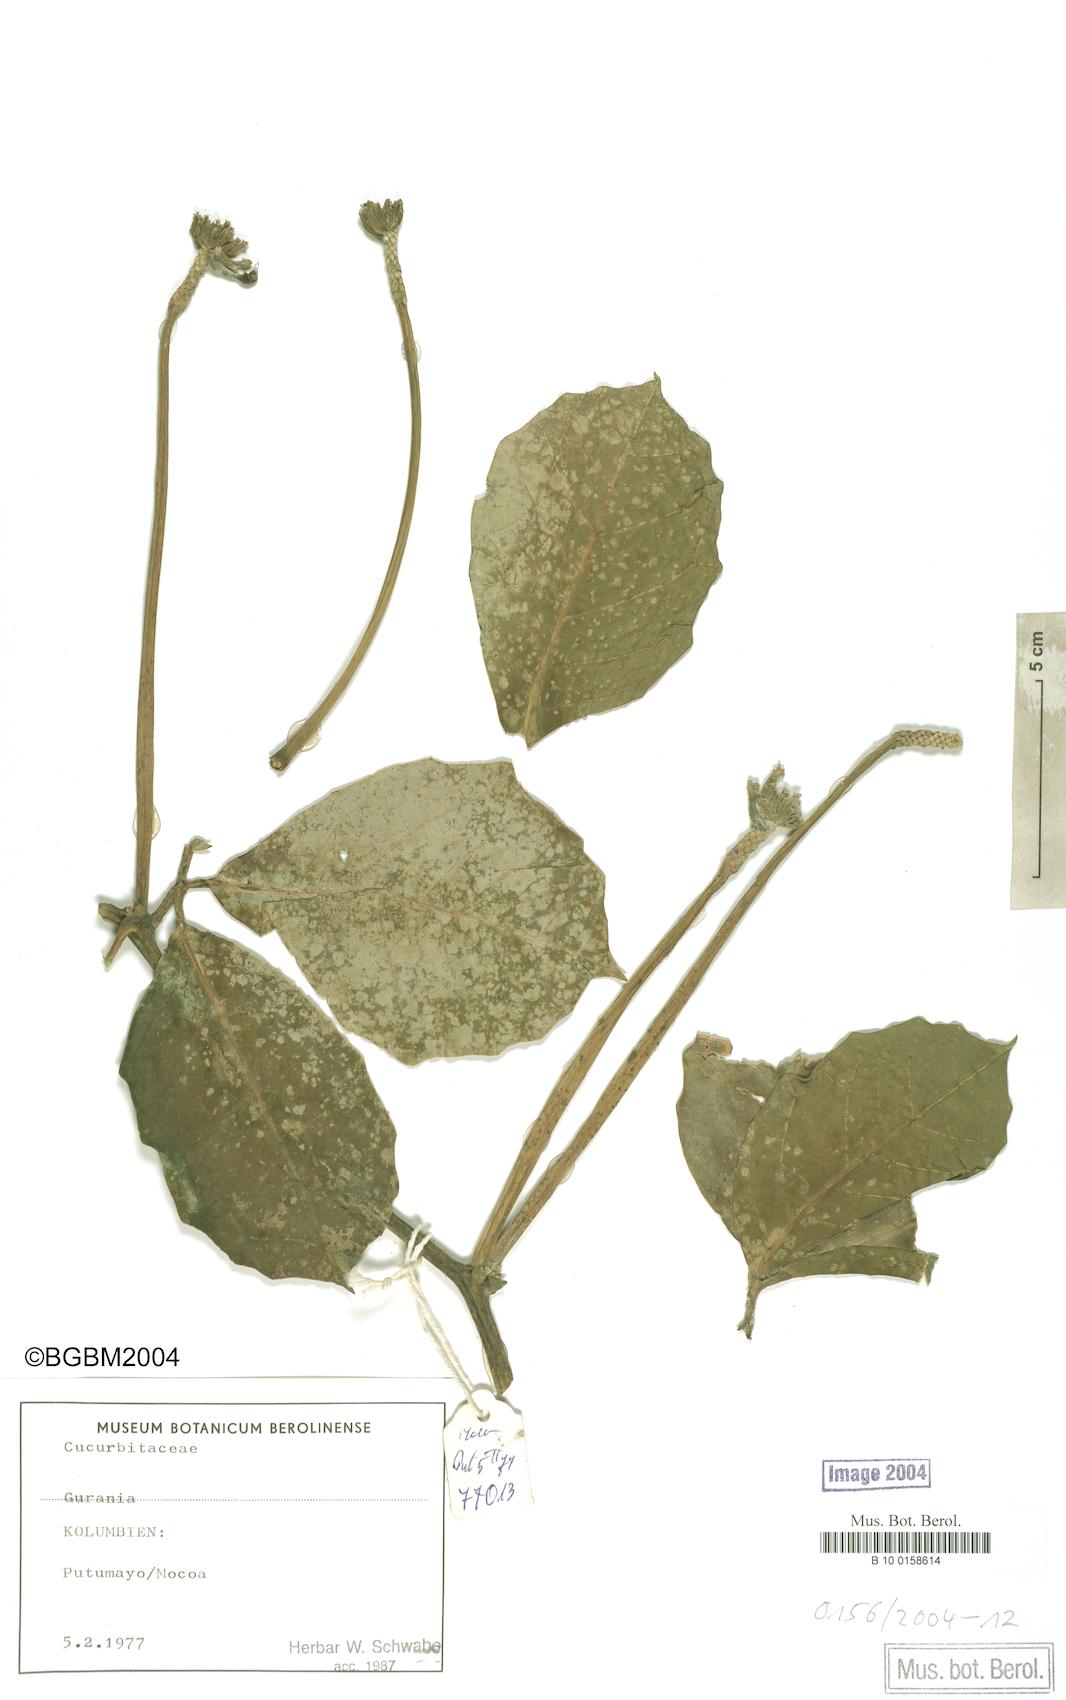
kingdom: Plantae
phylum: Tracheophyta
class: Magnoliopsida
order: Cucurbitales
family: Cucurbitaceae
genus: Psiguria
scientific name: Psiguria
